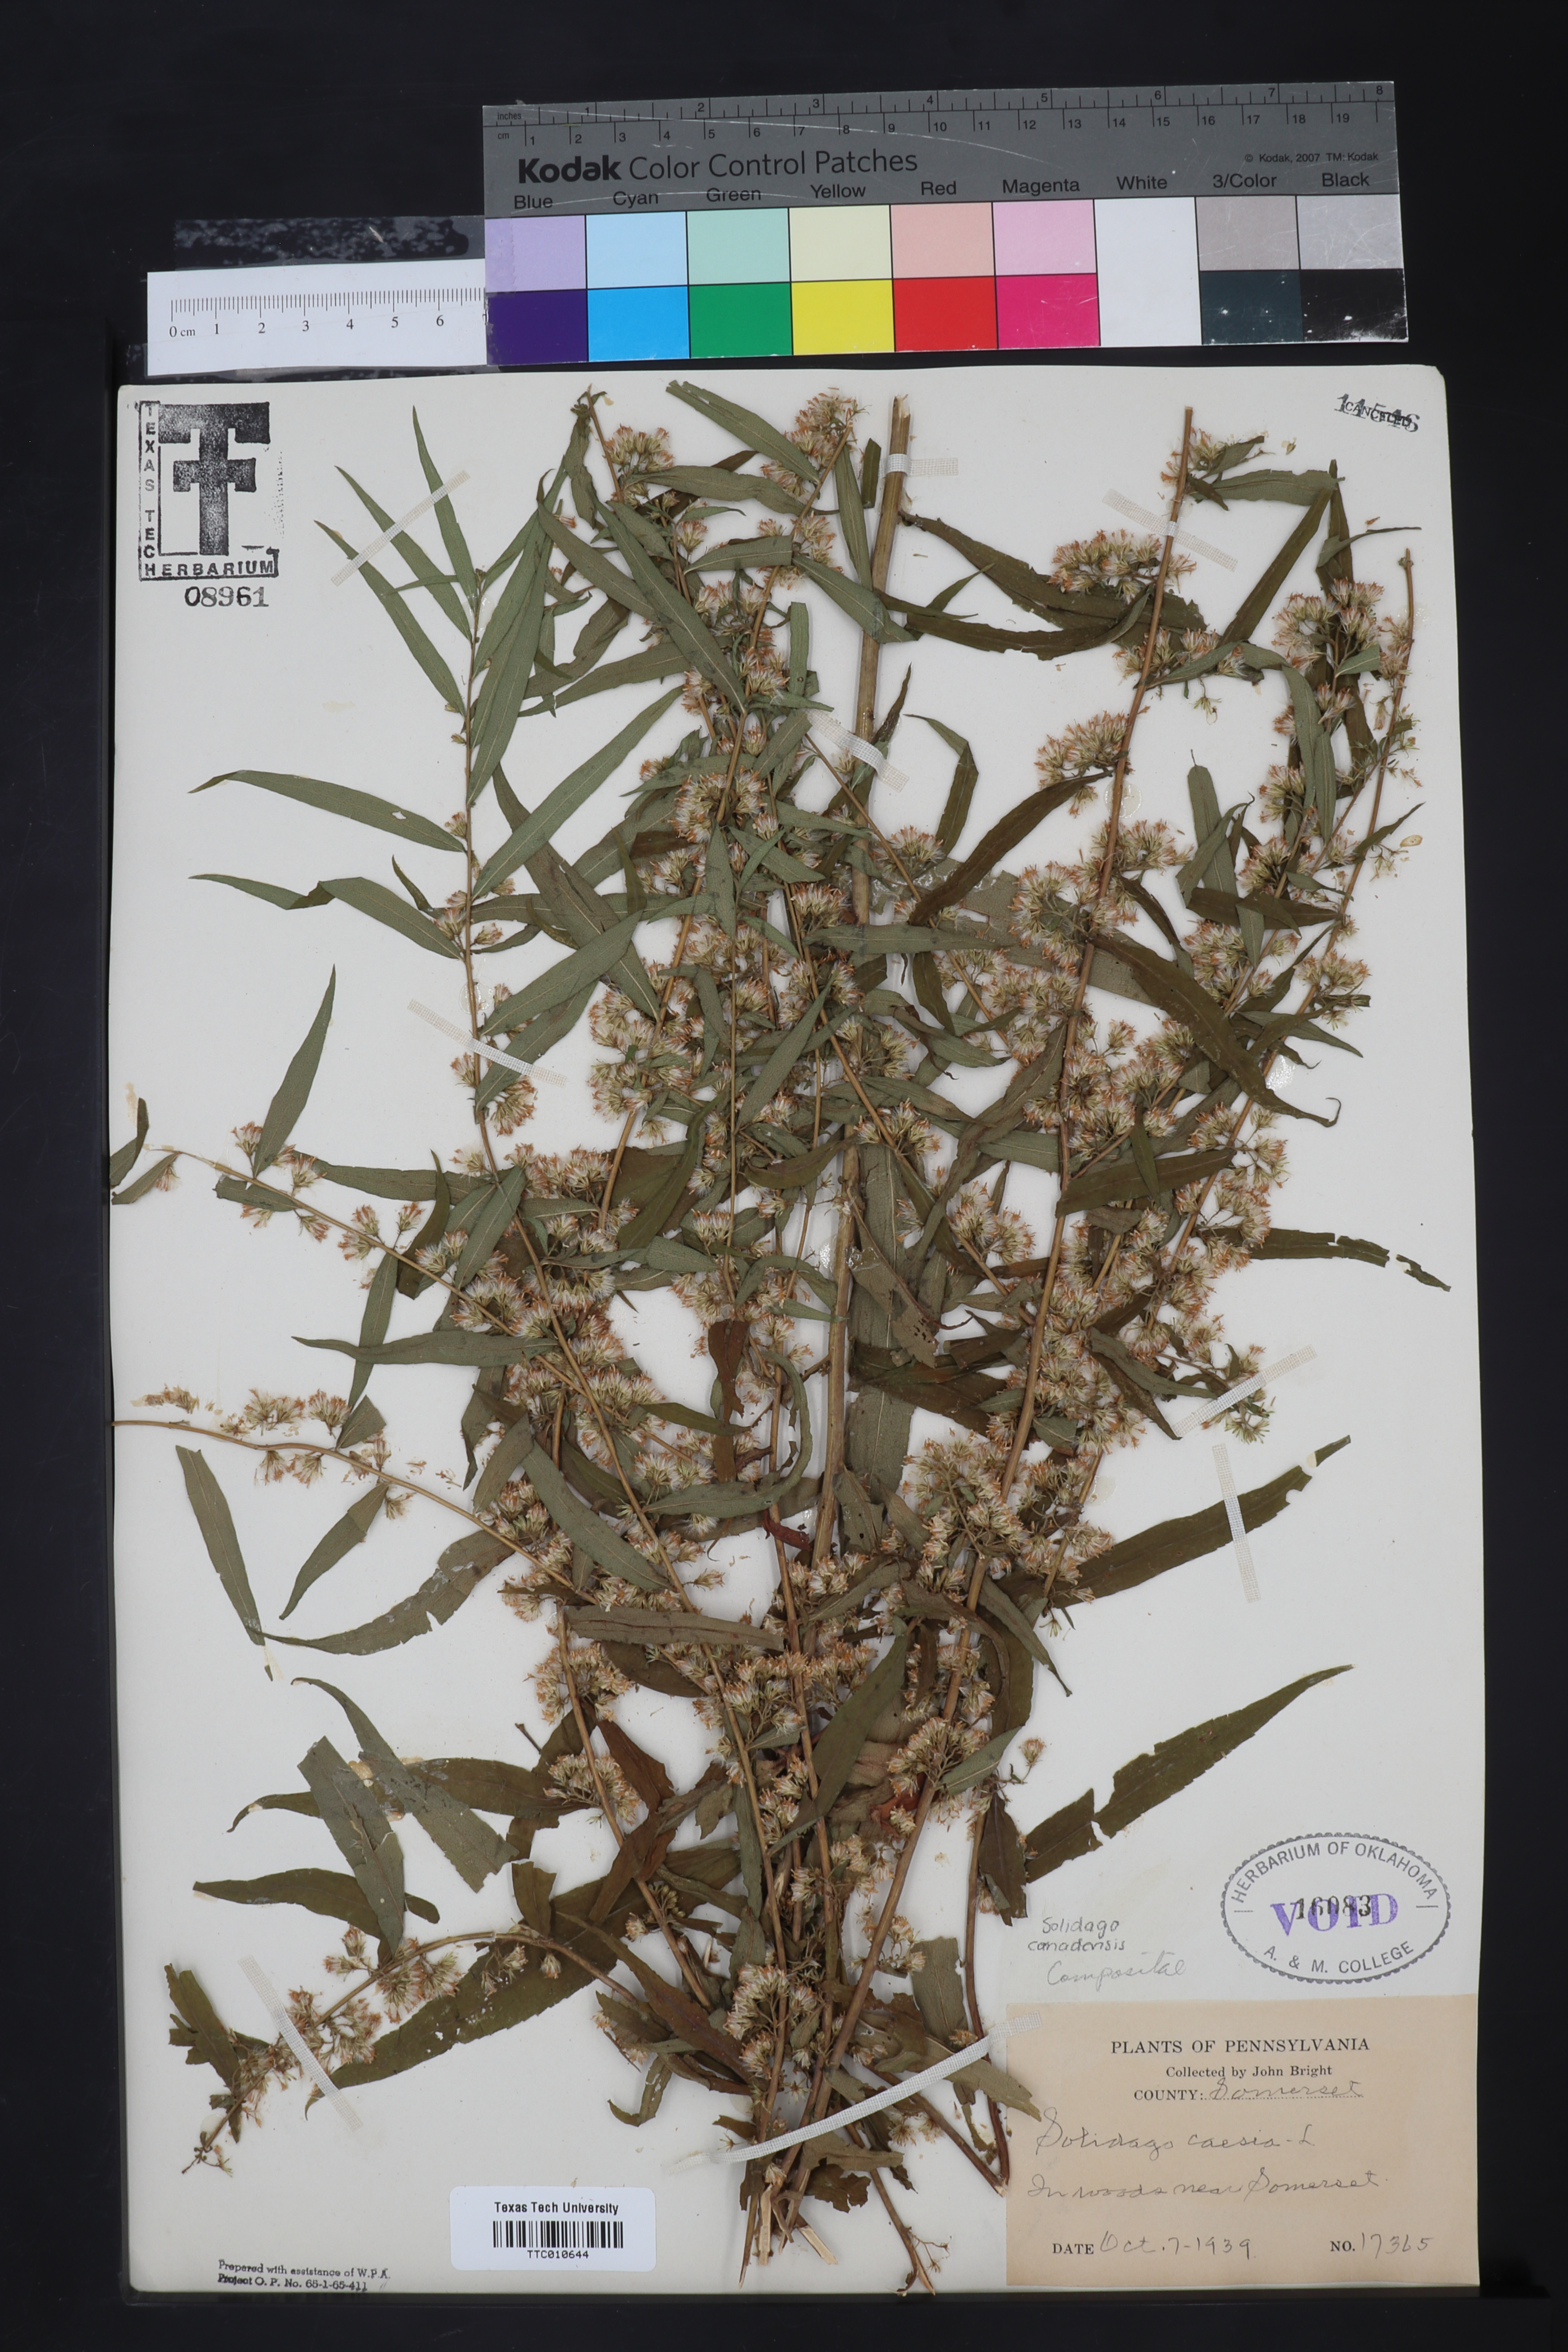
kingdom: Plantae
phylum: Tracheophyta
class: Magnoliopsida
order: Asterales
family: Asteraceae
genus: Solidago
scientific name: Solidago caesia
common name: Woodland goldenrod
